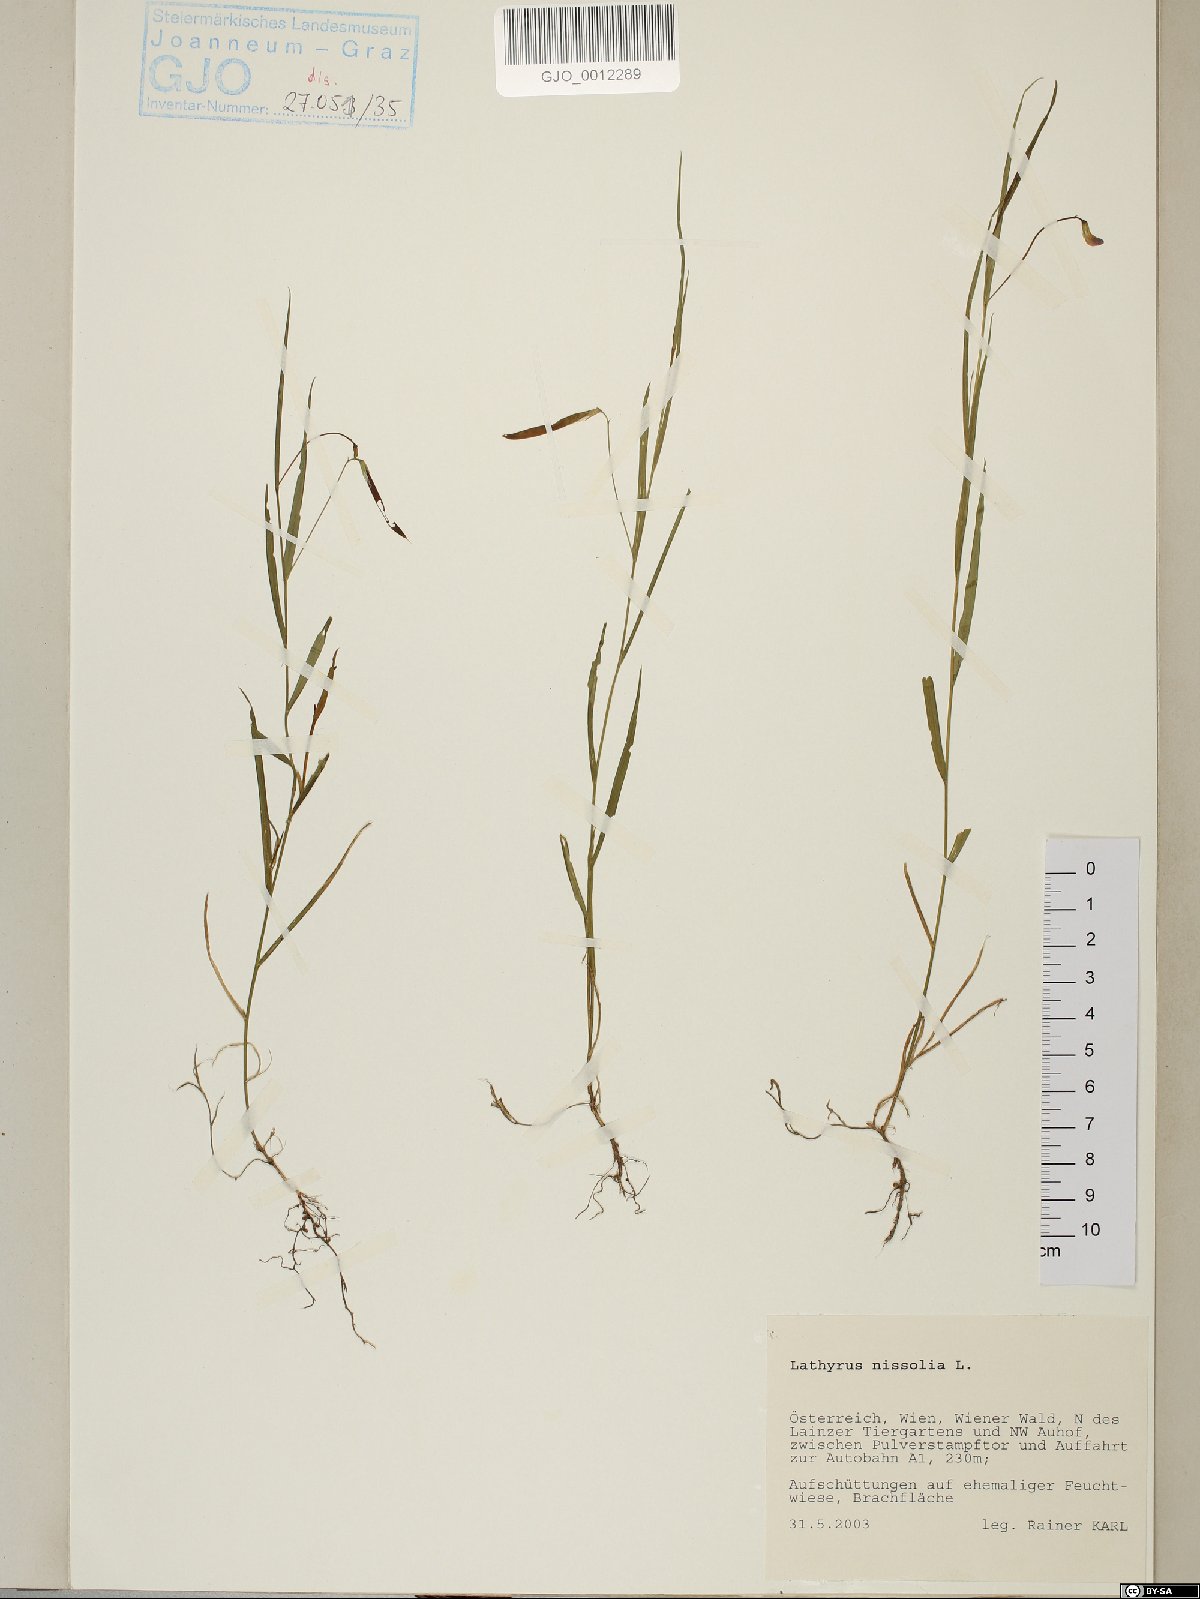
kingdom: Plantae
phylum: Tracheophyta
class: Magnoliopsida
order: Fabales
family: Fabaceae
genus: Lathyrus
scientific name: Lathyrus nissolia
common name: Grass vetchling
